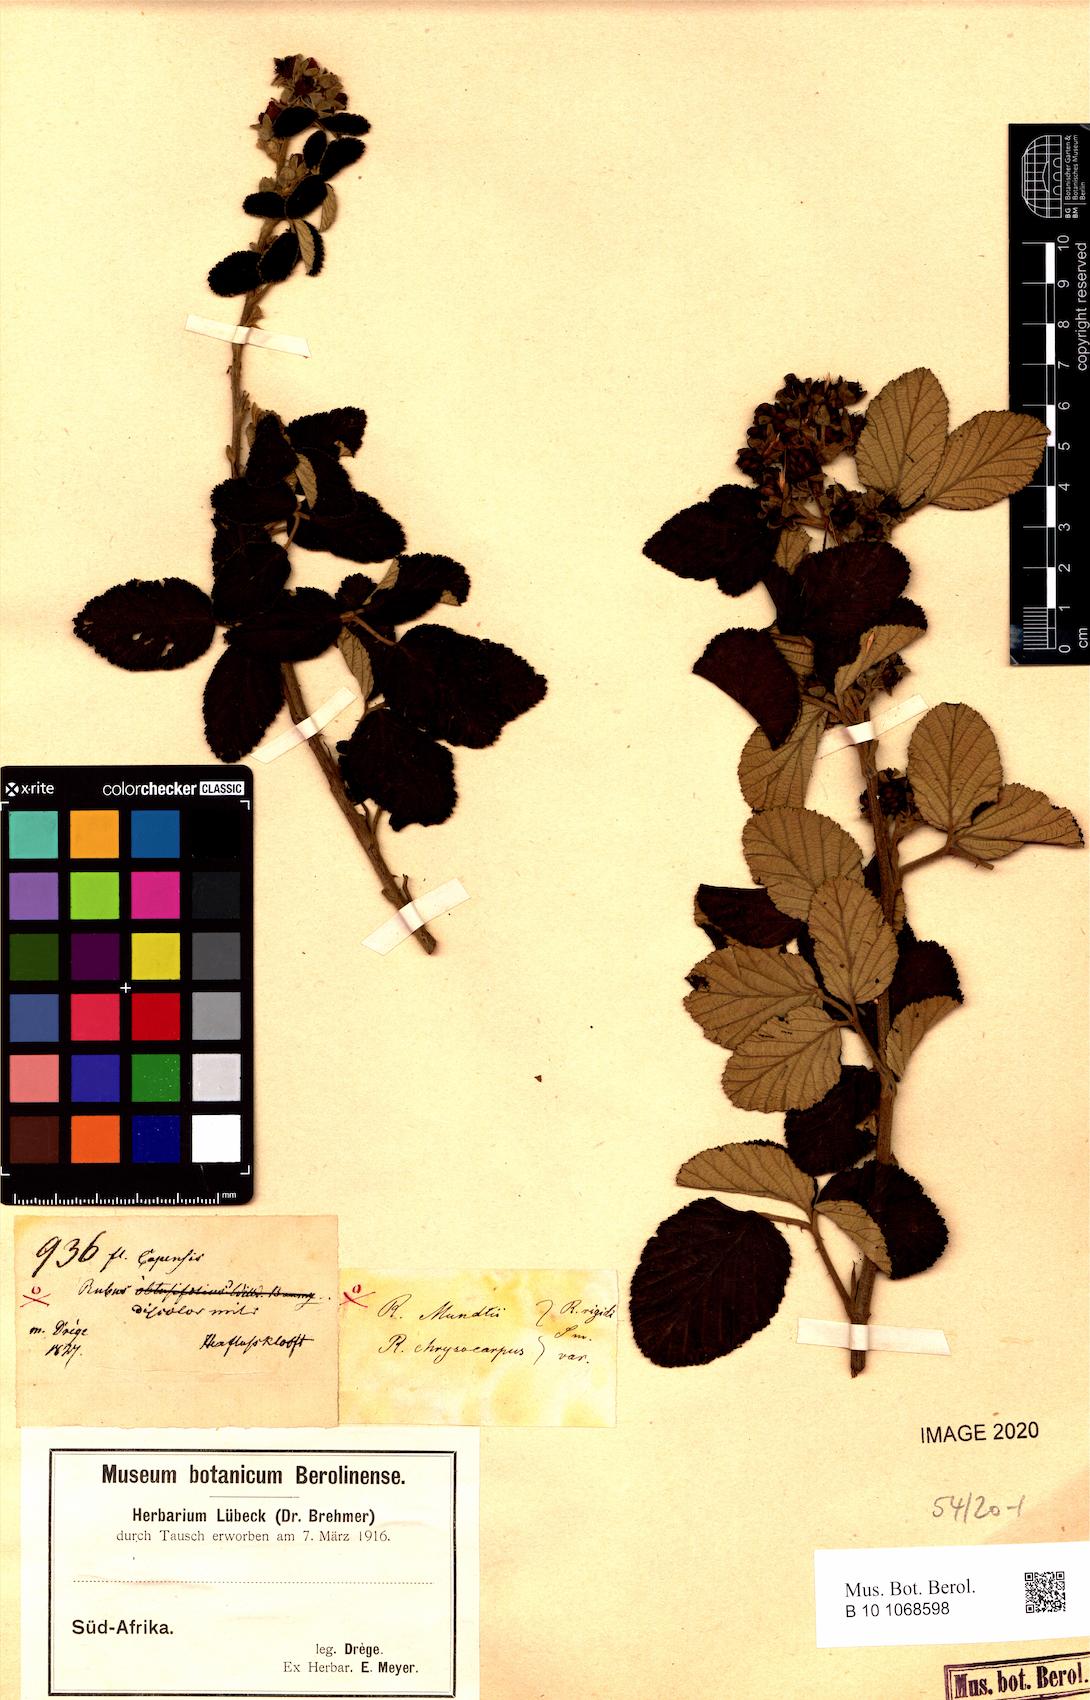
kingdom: Plantae
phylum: Tracheophyta
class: Magnoliopsida
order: Rosales
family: Rosaceae
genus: Rubus
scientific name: Rubus rigidus
